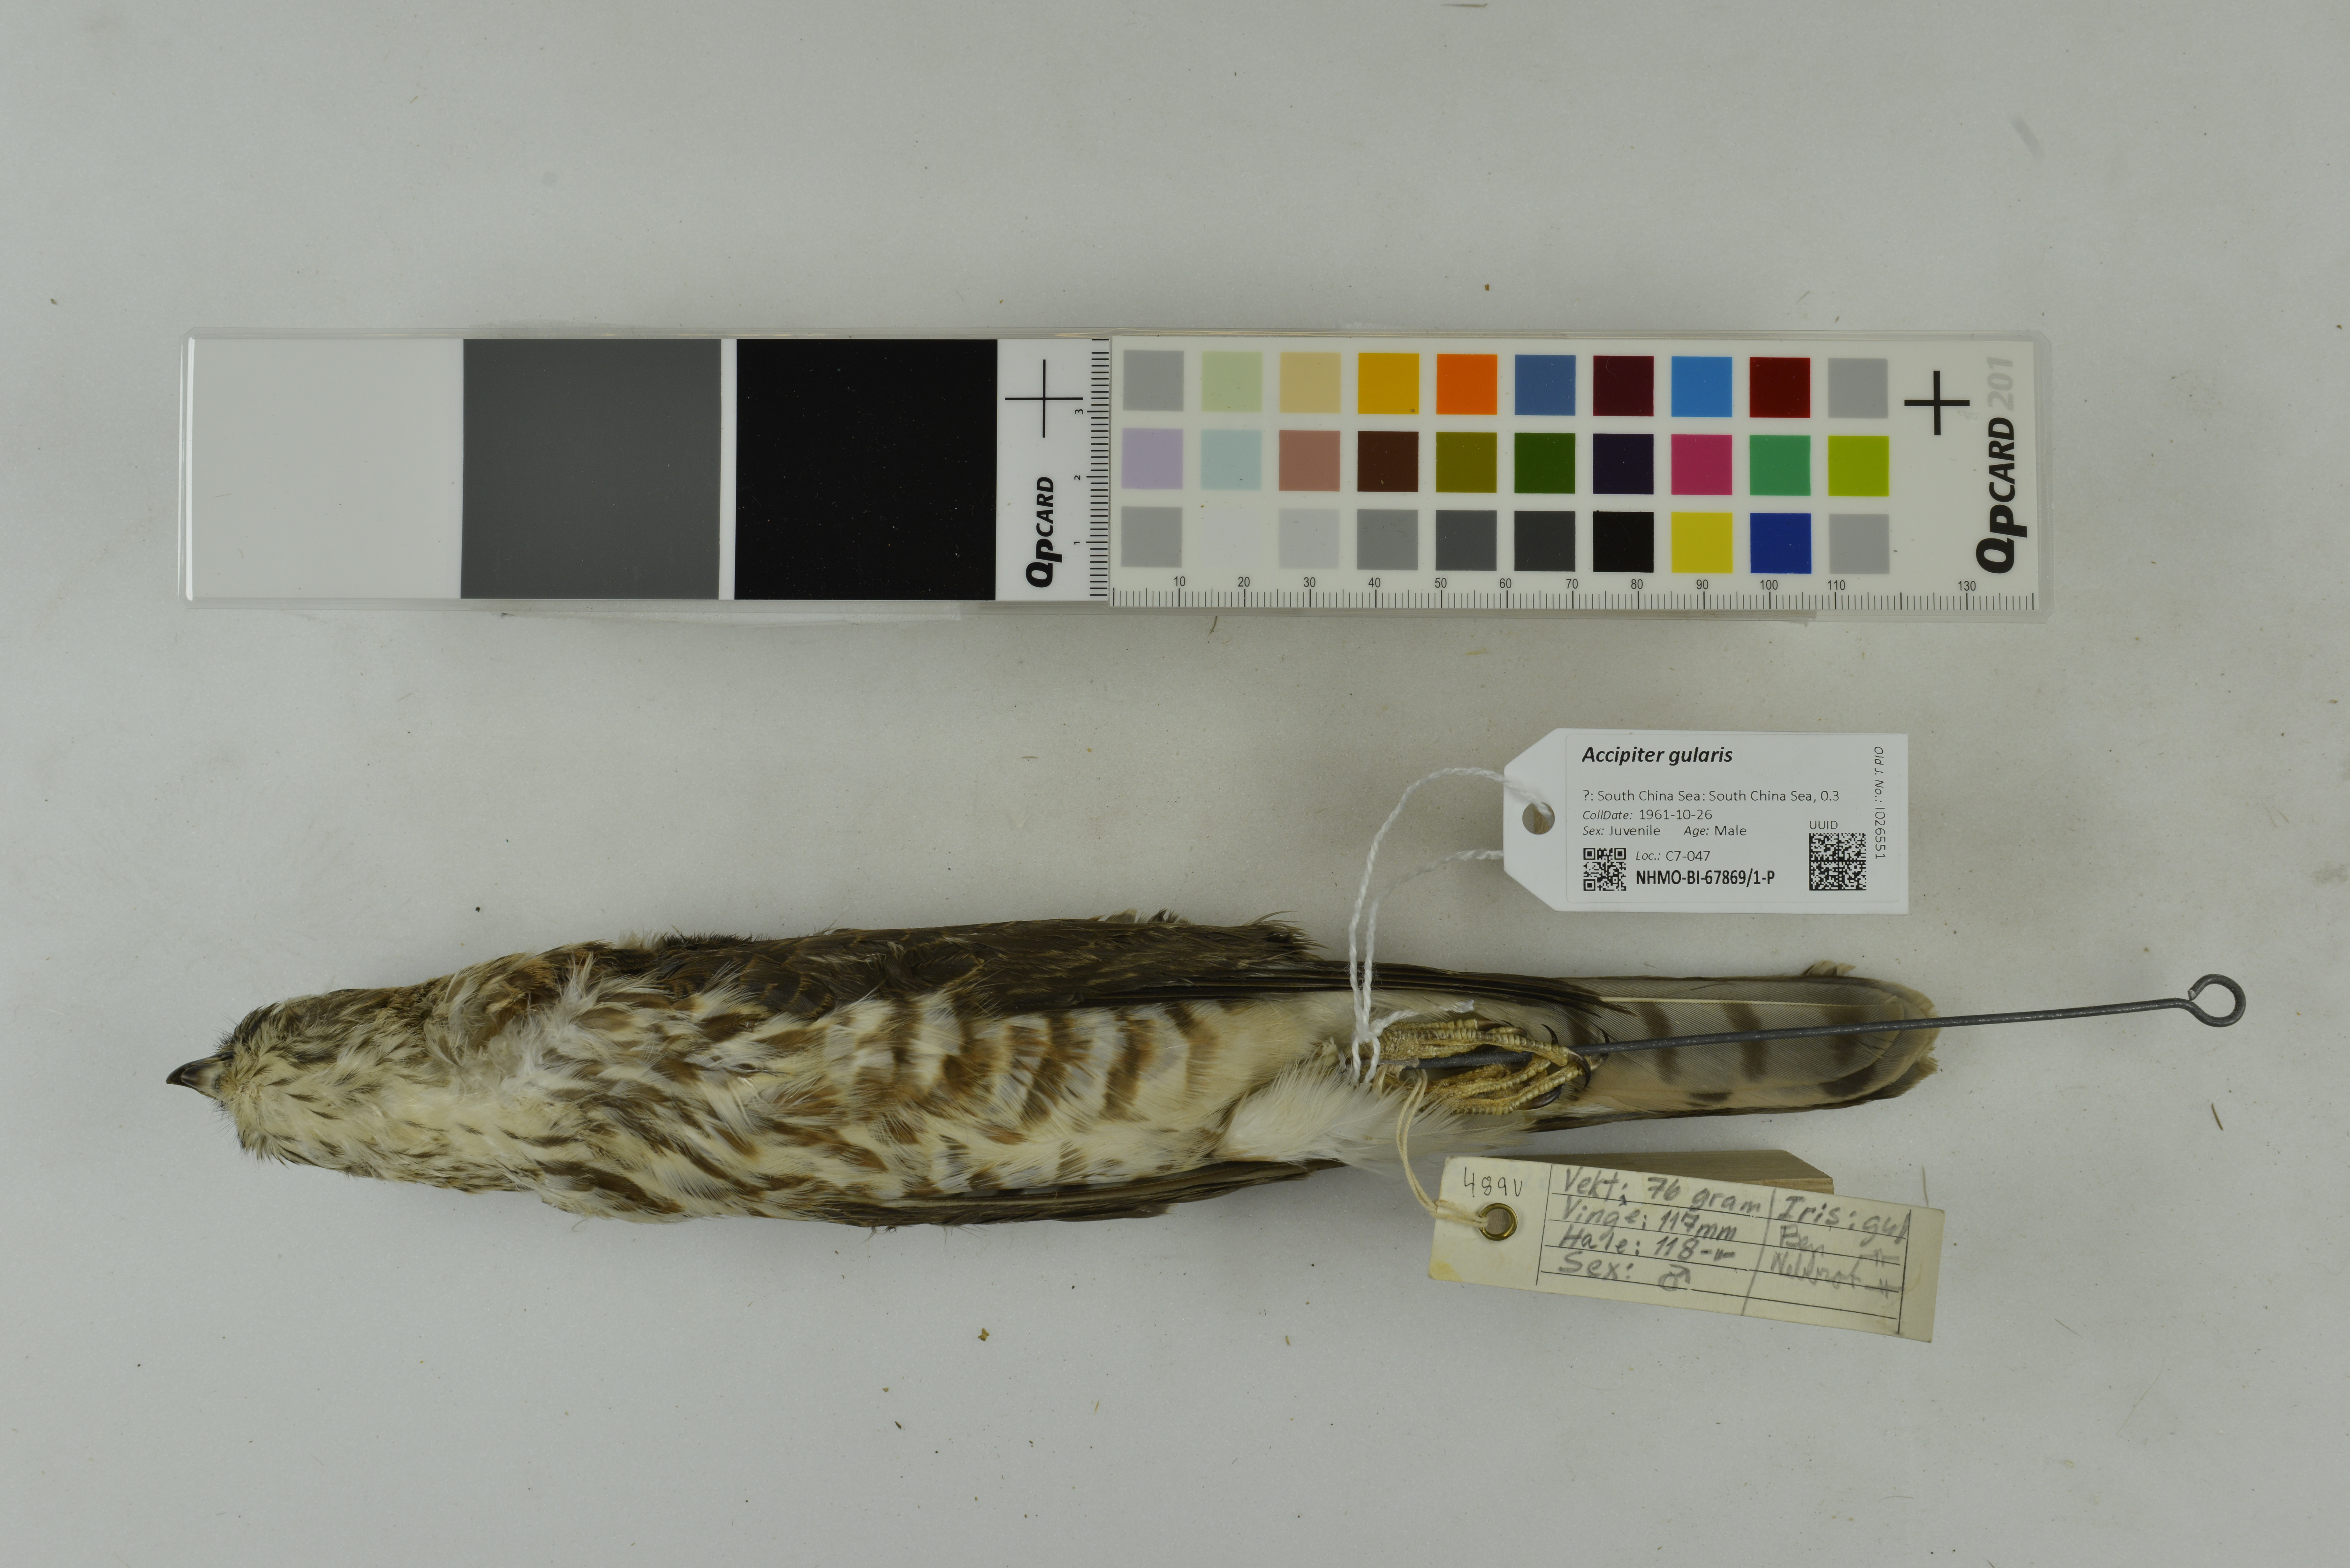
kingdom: Animalia
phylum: Chordata
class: Aves
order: Accipitriformes
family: Accipitridae
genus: Accipiter
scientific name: Accipiter gularis
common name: Japanese sparrowhawk
